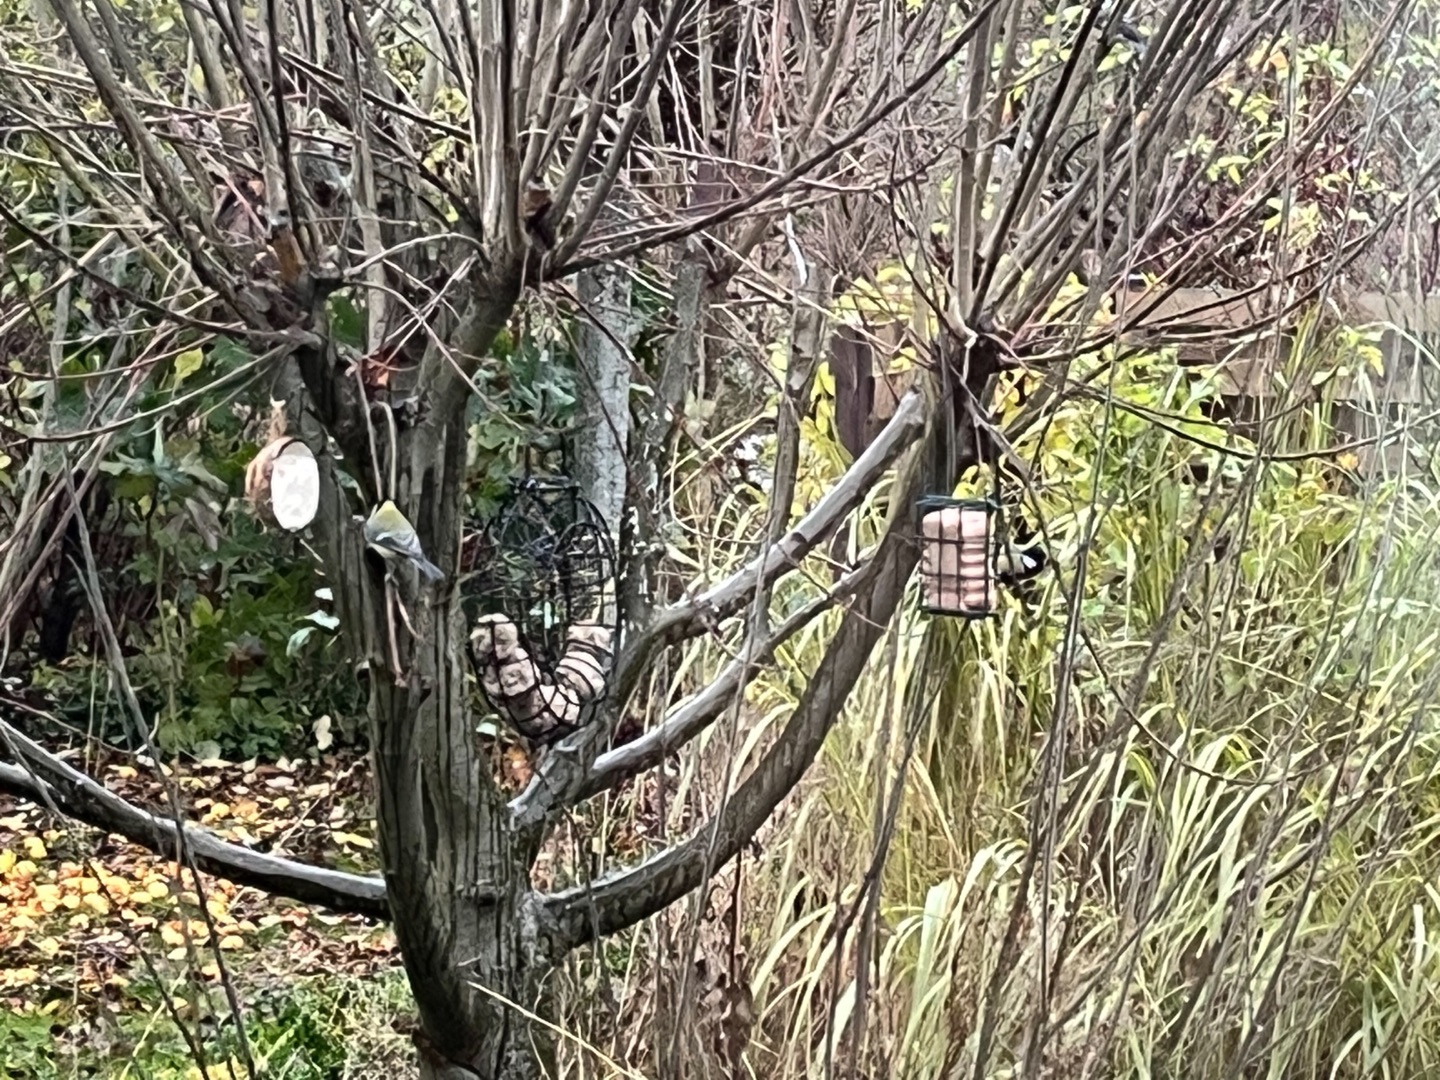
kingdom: Animalia
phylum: Chordata
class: Aves
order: Passeriformes
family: Paridae
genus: Parus
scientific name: Parus major
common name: Musvit
